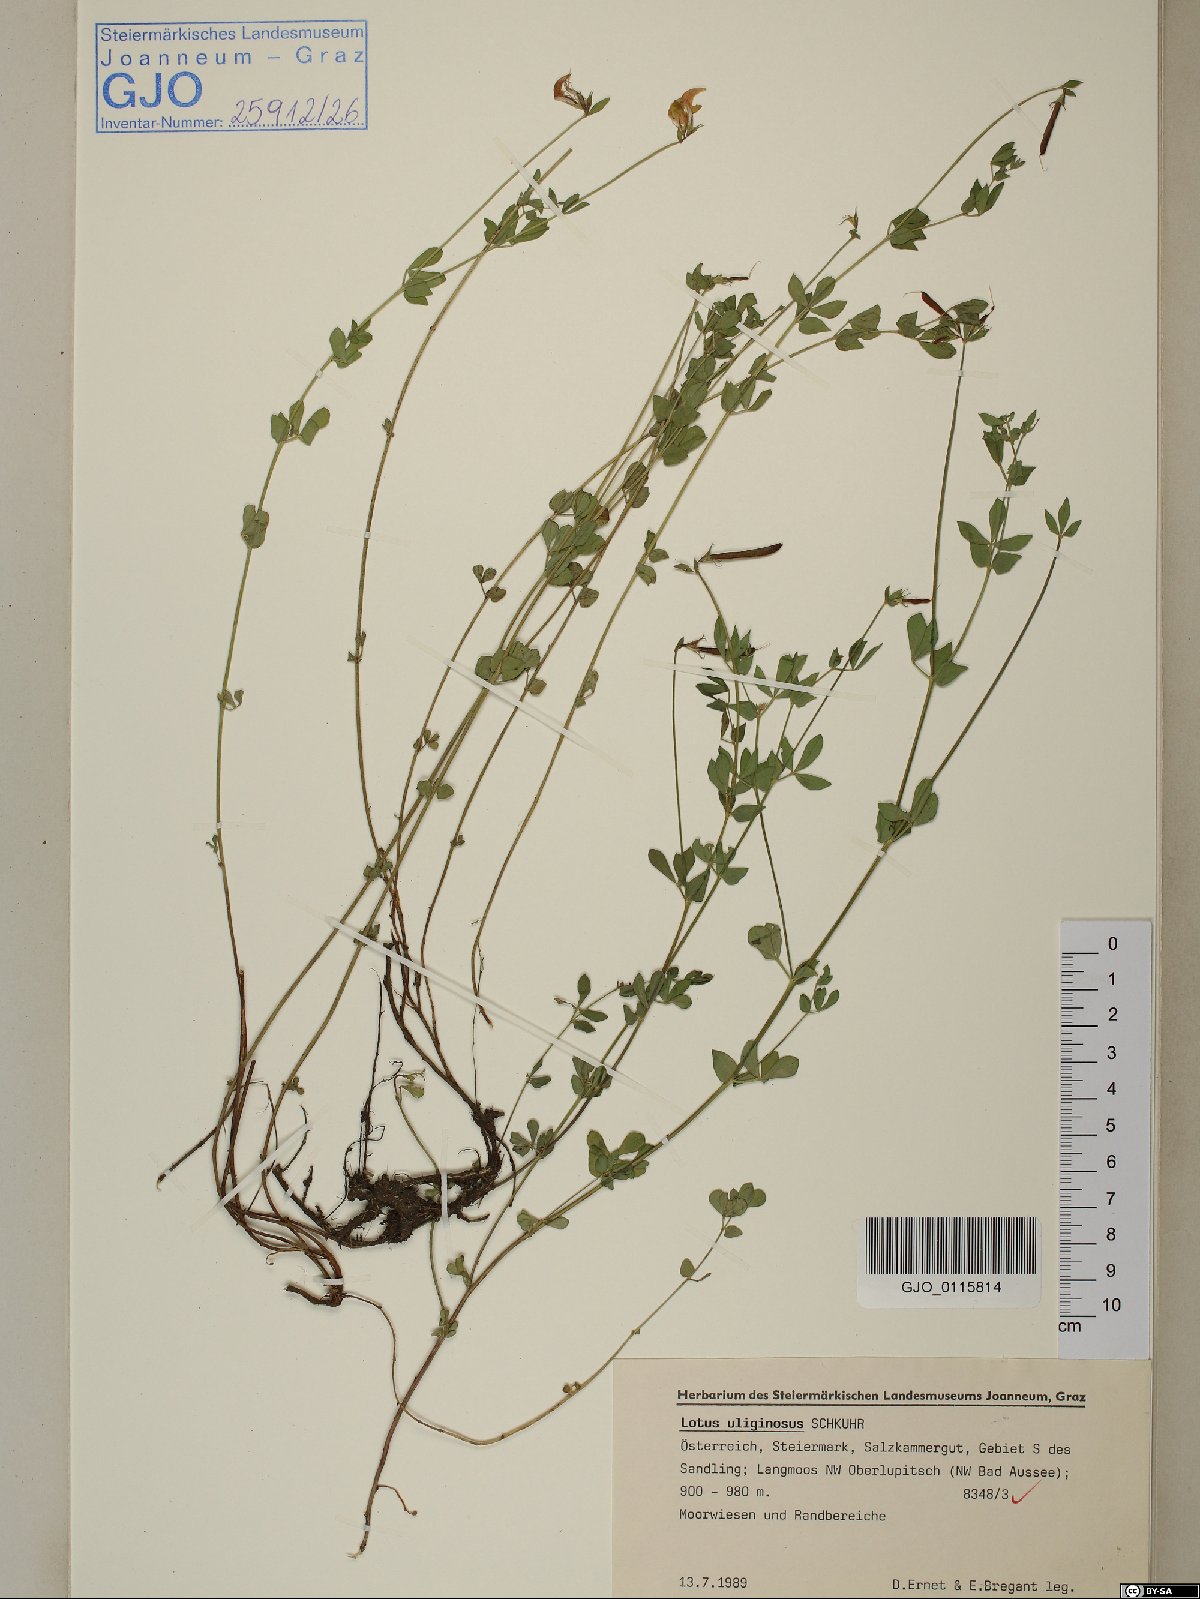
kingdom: Plantae
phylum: Tracheophyta
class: Magnoliopsida
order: Fabales
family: Fabaceae
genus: Lotus
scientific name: Lotus pedunculatus
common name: Greater birdsfoot-trefoil
